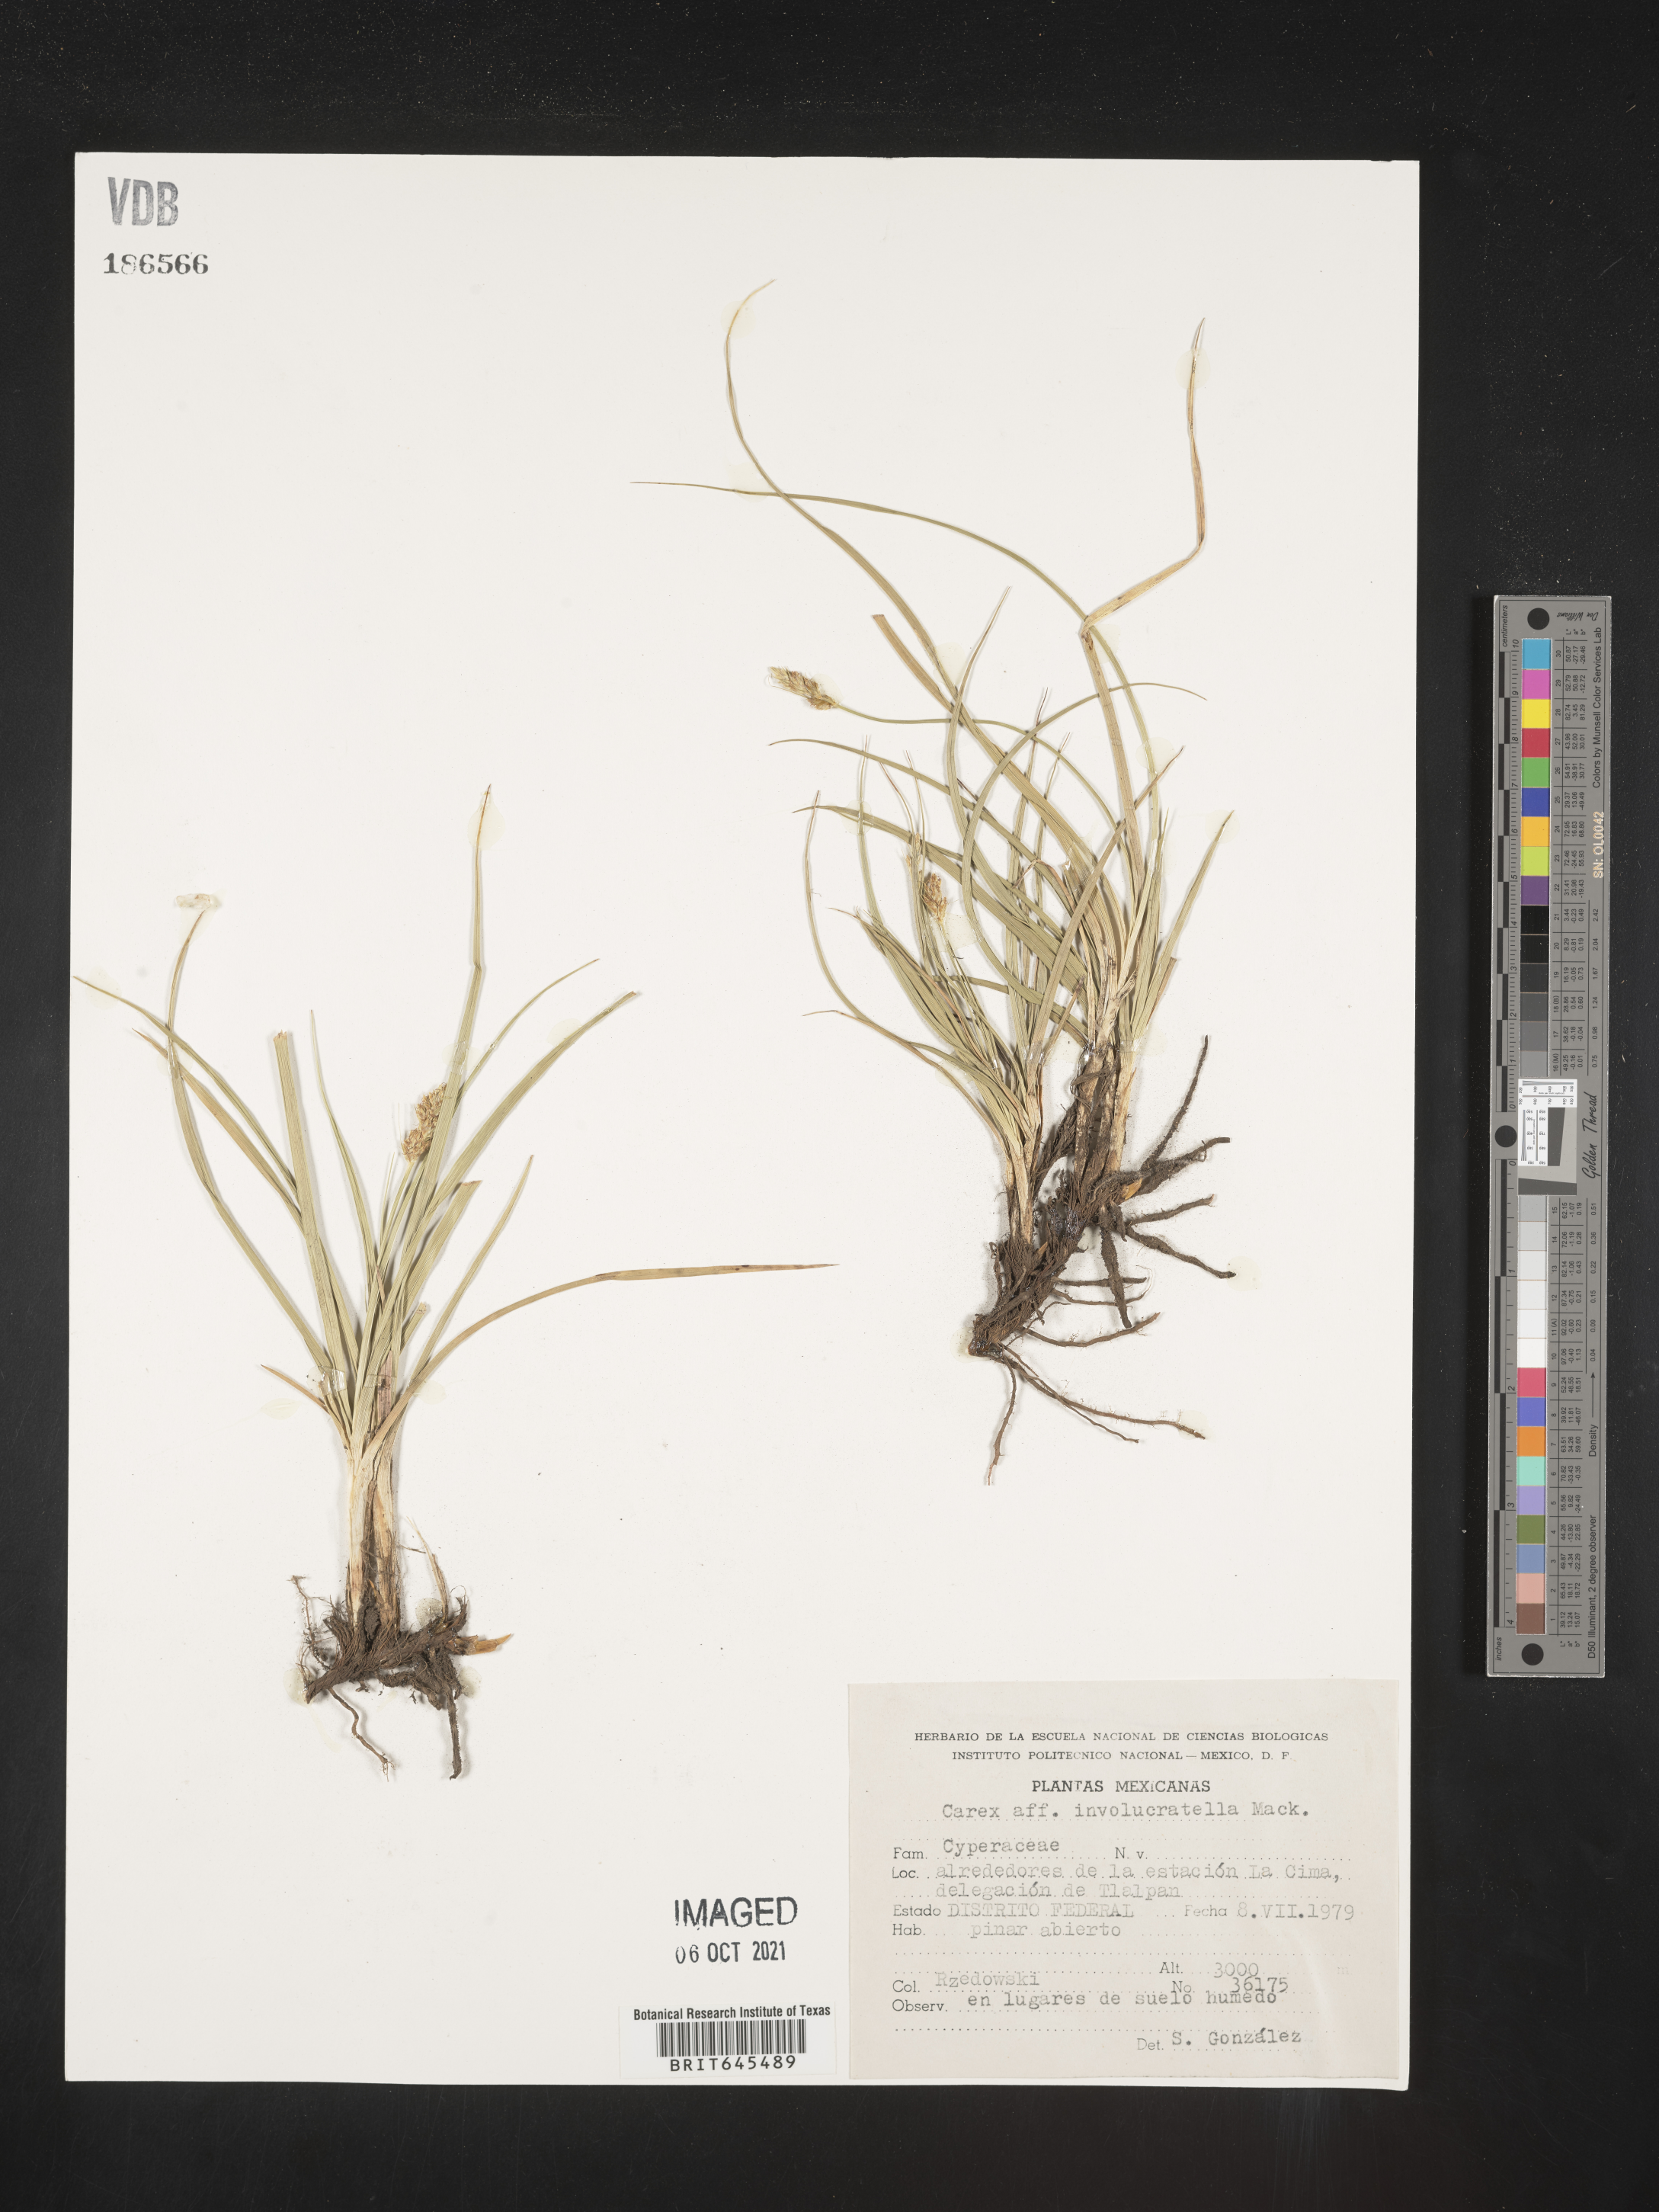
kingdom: Plantae
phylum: Tracheophyta
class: Liliopsida
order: Poales
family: Cyperaceae
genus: Carex
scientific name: Carex
